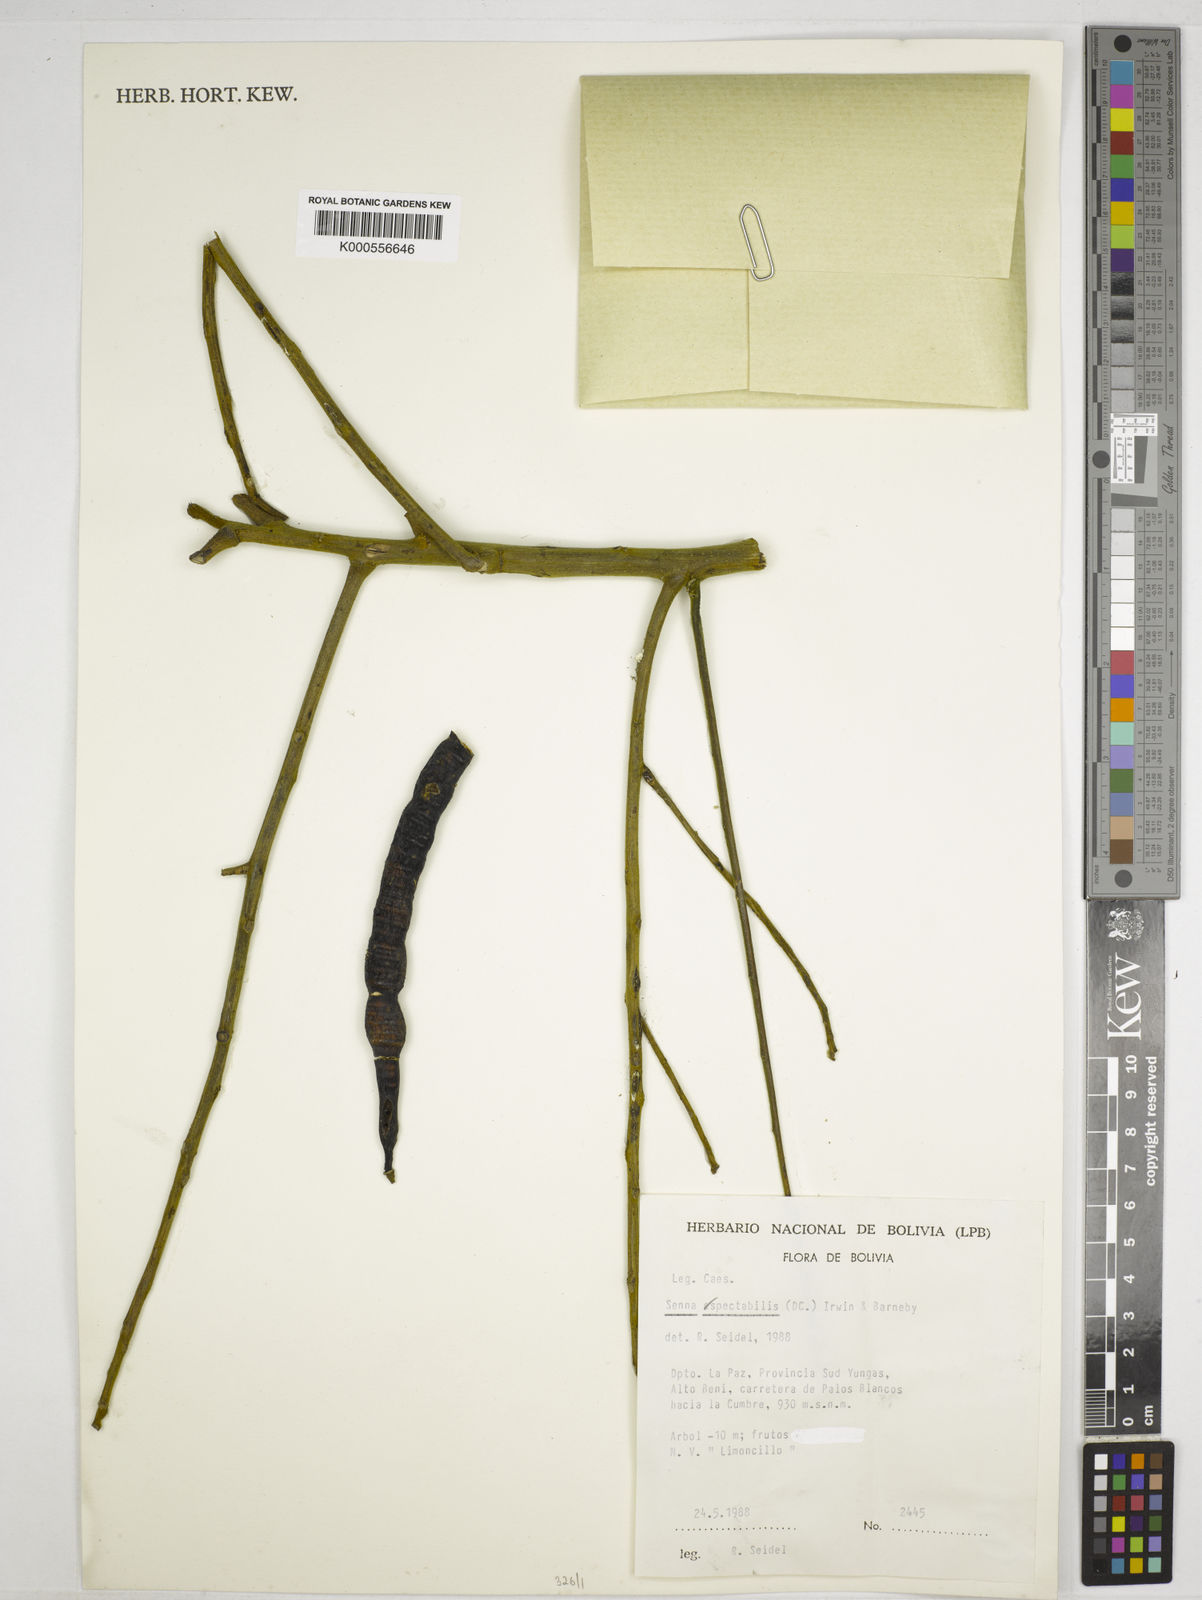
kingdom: Plantae
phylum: Tracheophyta
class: Magnoliopsida
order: Fabales
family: Fabaceae
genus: Senna
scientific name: Senna spectabilis
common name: Casia amarilla
